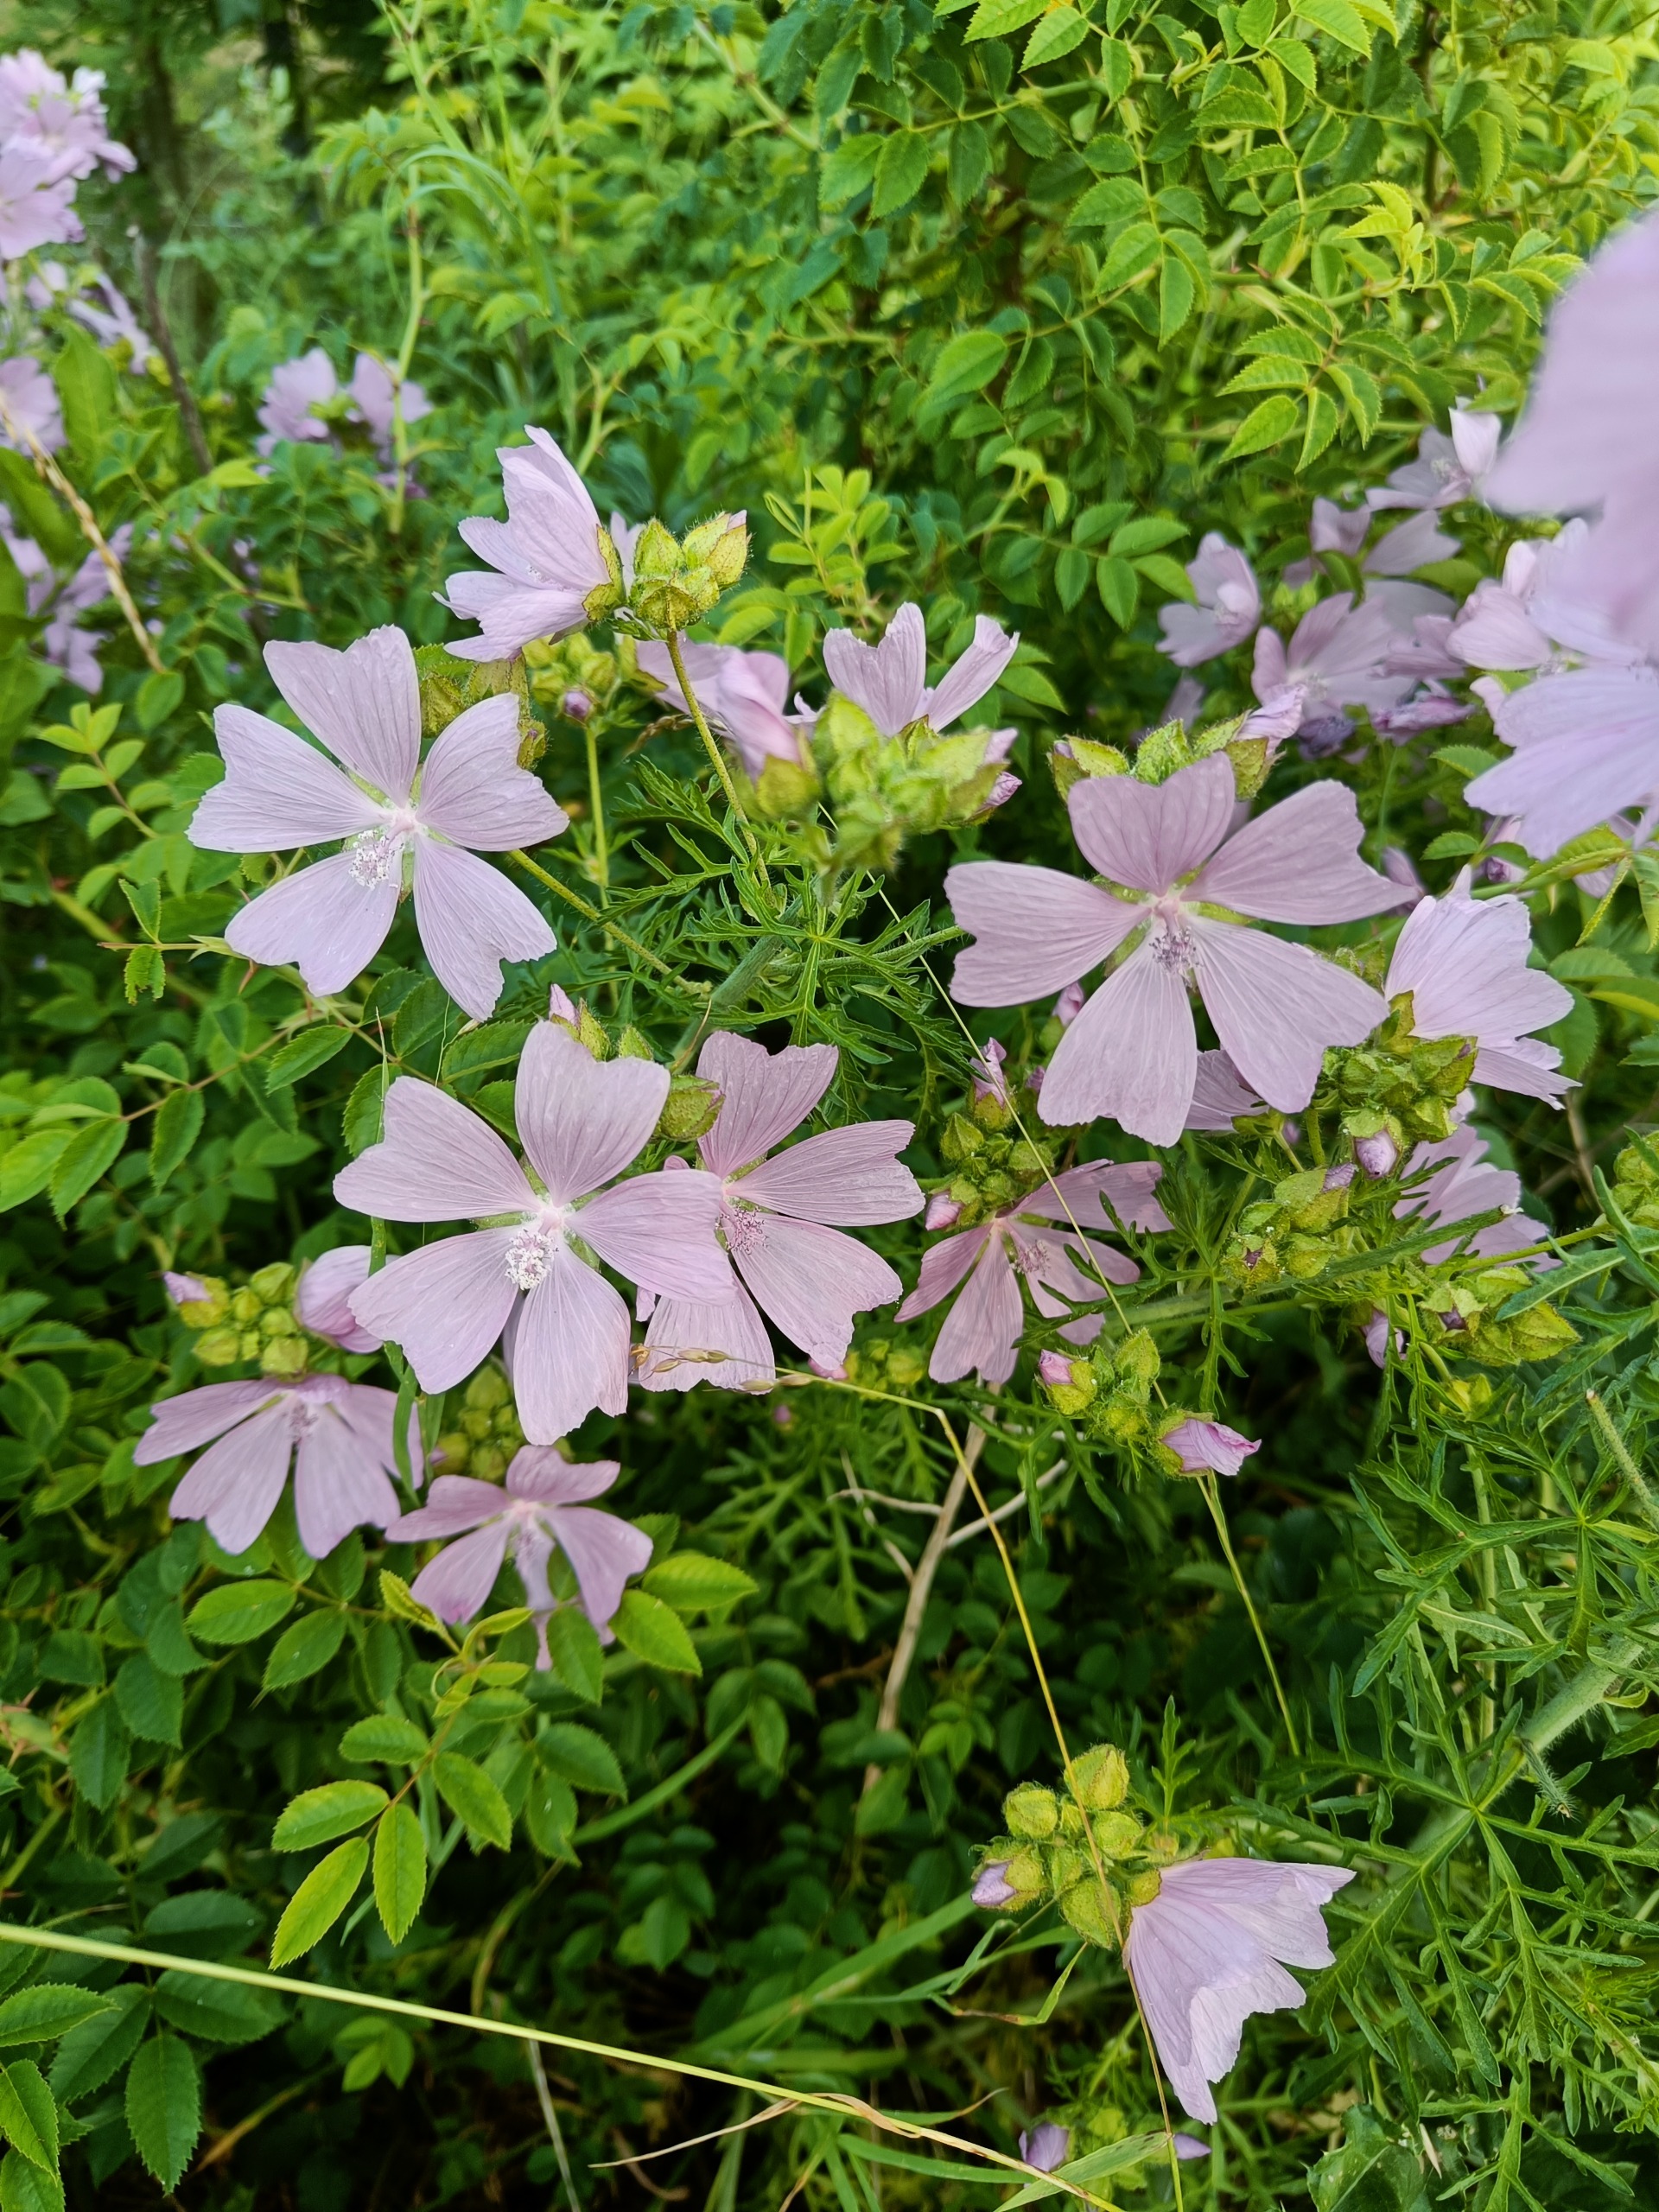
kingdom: Plantae
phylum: Tracheophyta
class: Magnoliopsida
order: Malvales
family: Malvaceae
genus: Malva
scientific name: Malva moschata
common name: Moskus-katost
